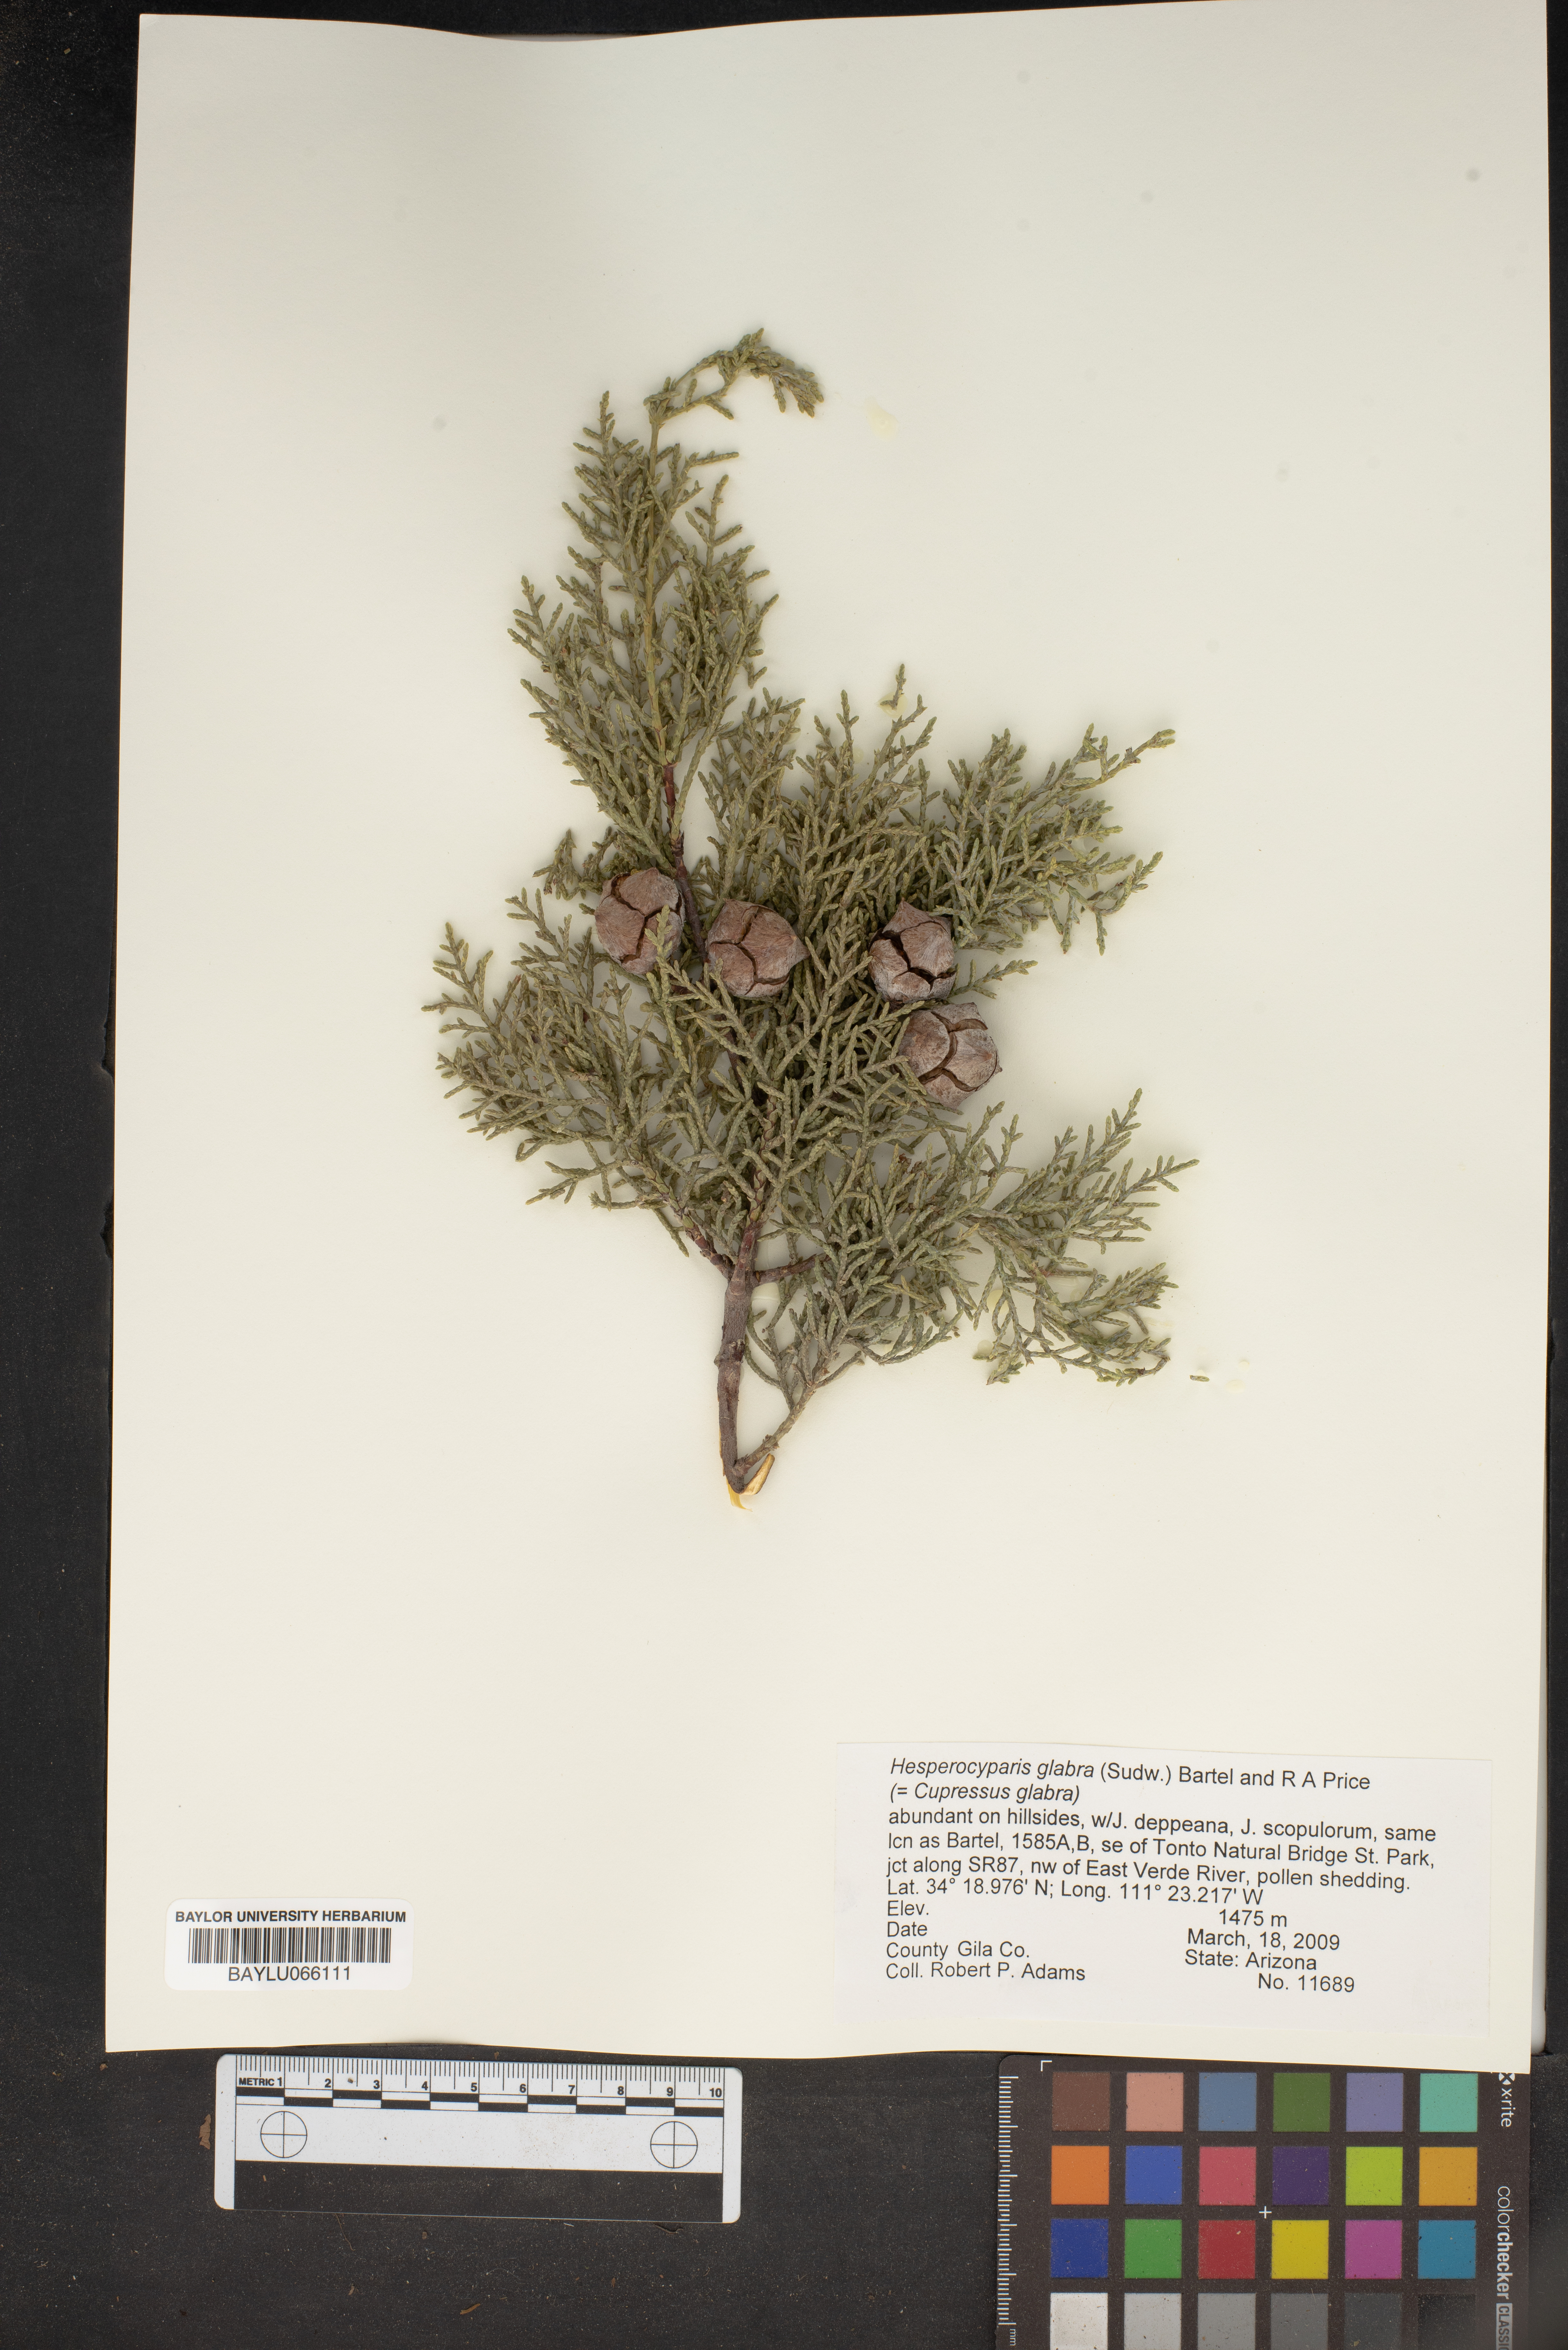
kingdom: Plantae
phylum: Tracheophyta
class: Pinopsida
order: Pinales
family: Cupressaceae
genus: Cupressus
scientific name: Cupressus arizonica
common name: Arizona cypress
